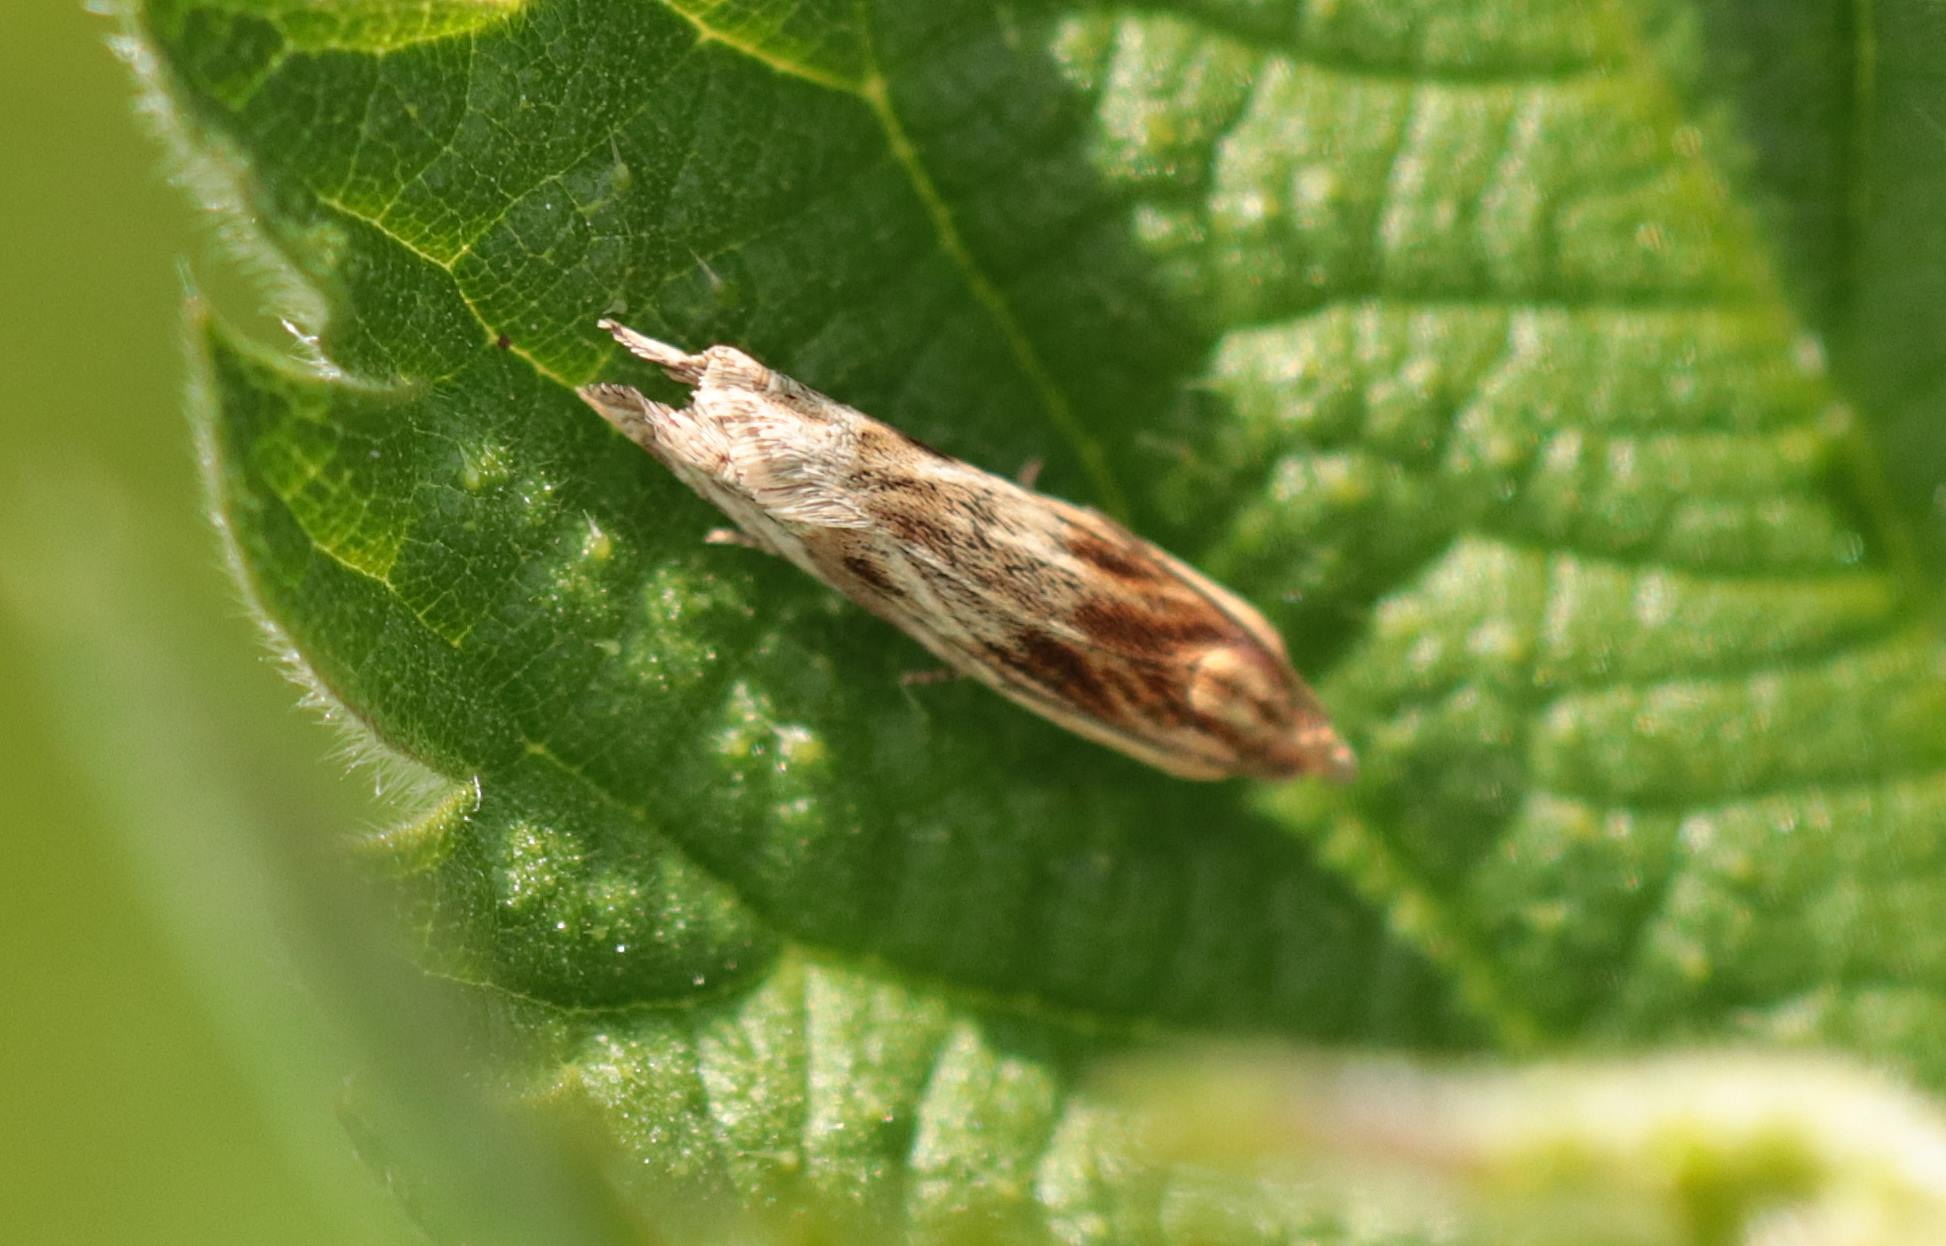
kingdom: Animalia
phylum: Arthropoda
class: Insecta
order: Lepidoptera
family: Tortricidae
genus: Eucosma
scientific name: Eucosma cana
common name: Tidselfrøvikler
